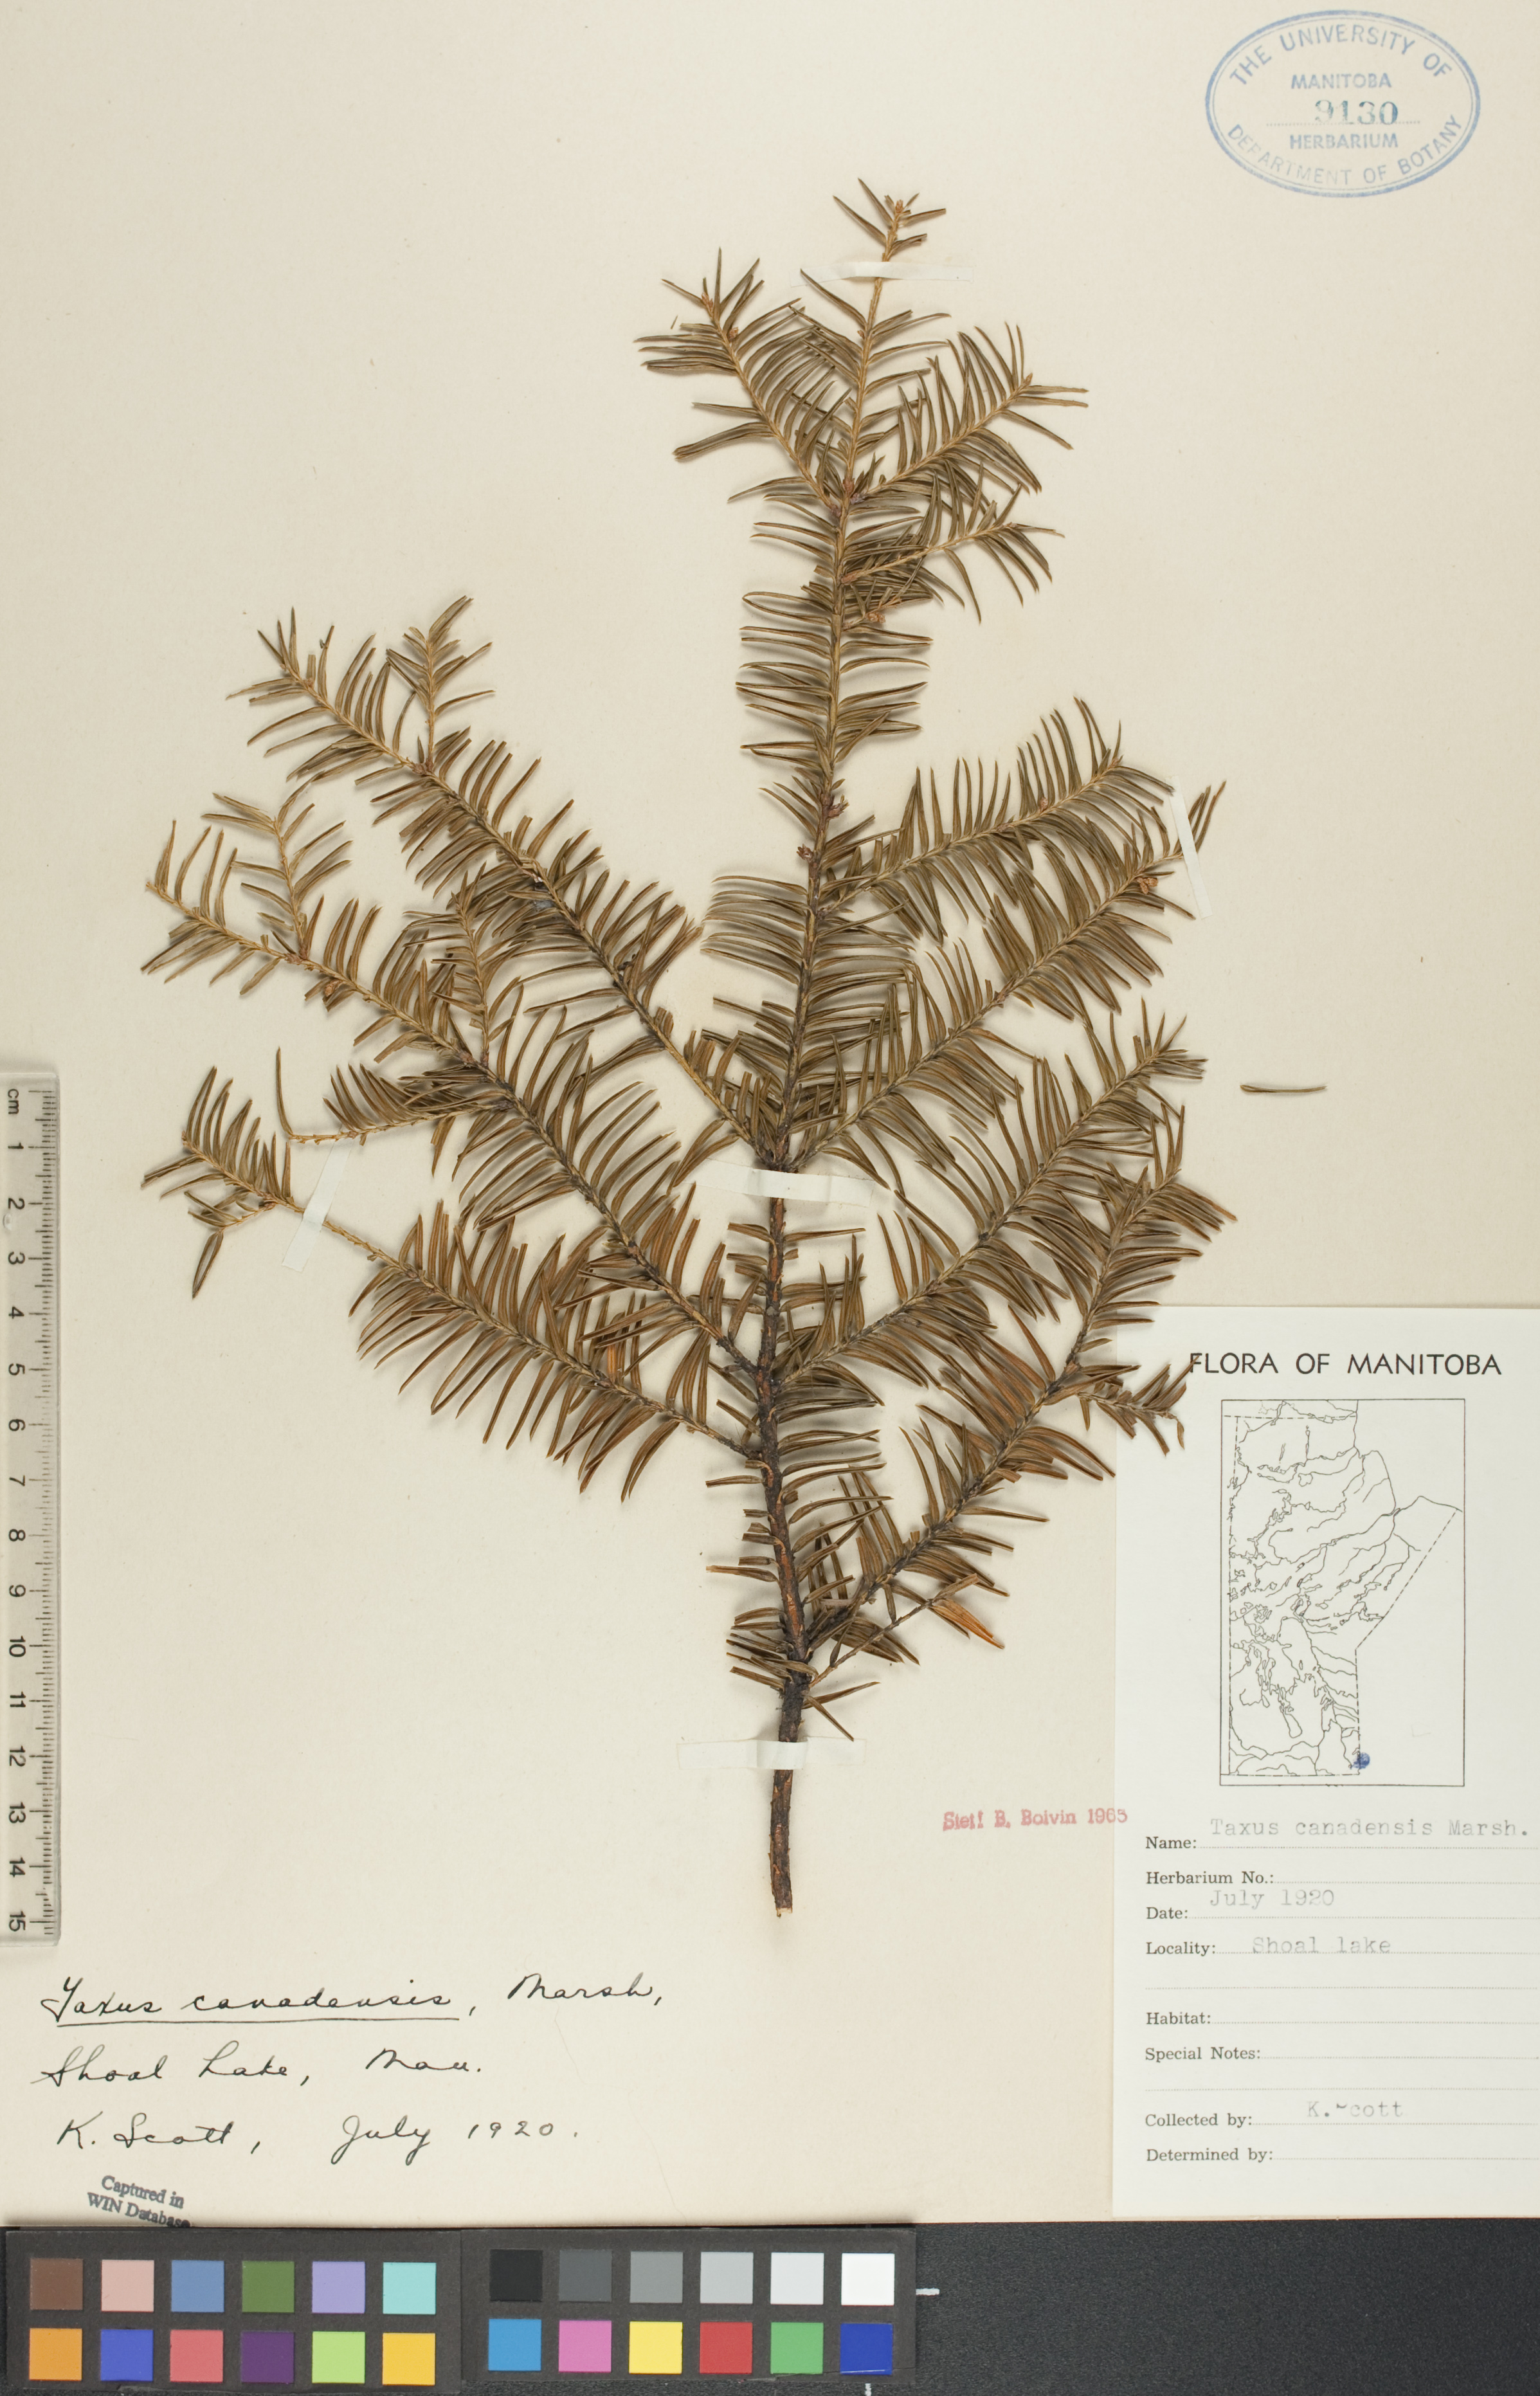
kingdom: Plantae
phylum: Tracheophyta
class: Pinopsida
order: Pinales
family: Taxaceae
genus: Taxus
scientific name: Taxus canadensis
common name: American yew
